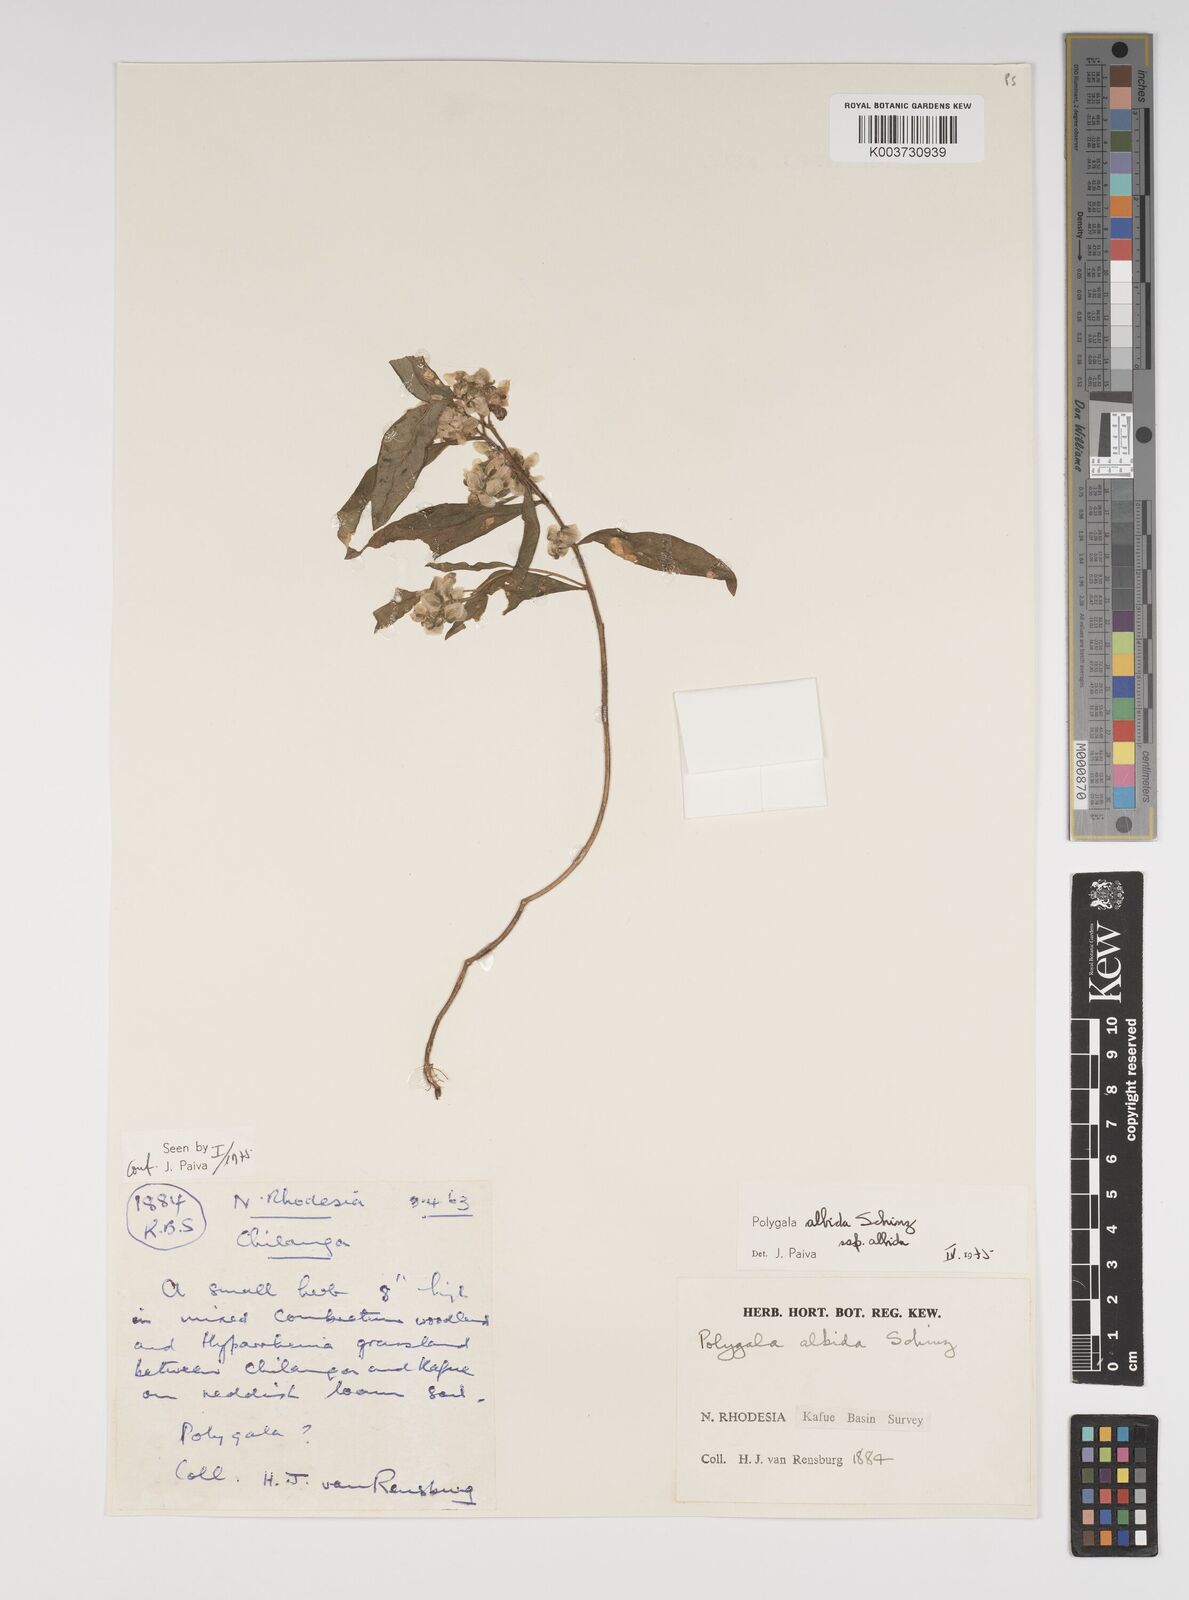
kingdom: Plantae
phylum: Tracheophyta
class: Magnoliopsida
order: Fabales
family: Polygalaceae
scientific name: Polygalaceae
